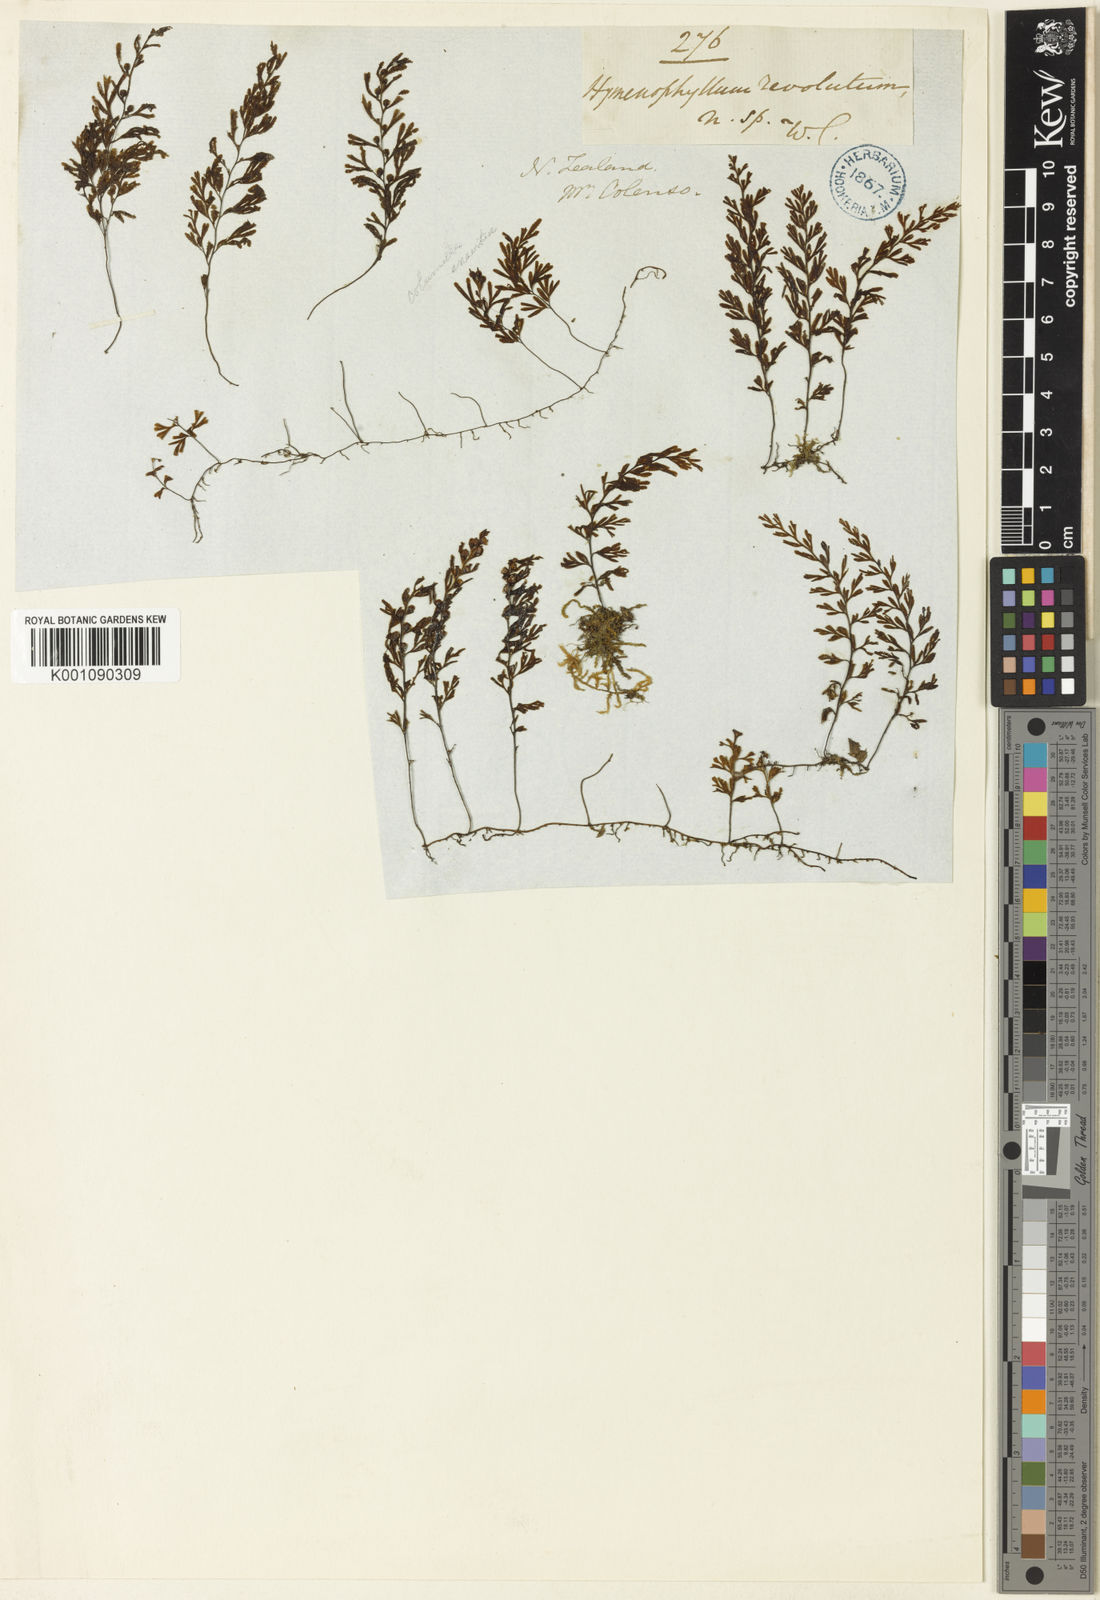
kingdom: Plantae
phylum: Tracheophyta
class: Polypodiopsida
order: Hymenophyllales
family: Hymenophyllaceae
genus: Hymenophyllum
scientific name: Hymenophyllum revolutum
